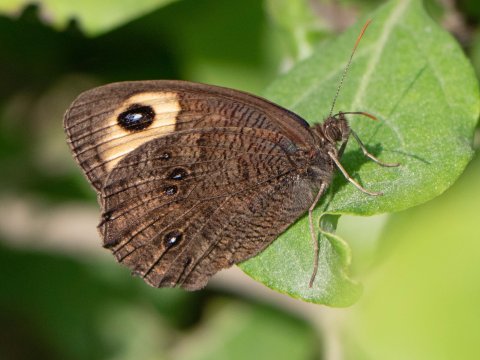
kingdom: Animalia
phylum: Arthropoda
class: Insecta
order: Lepidoptera
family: Nymphalidae
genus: Cercyonis
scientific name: Cercyonis pegala
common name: Common Wood-Nymph
